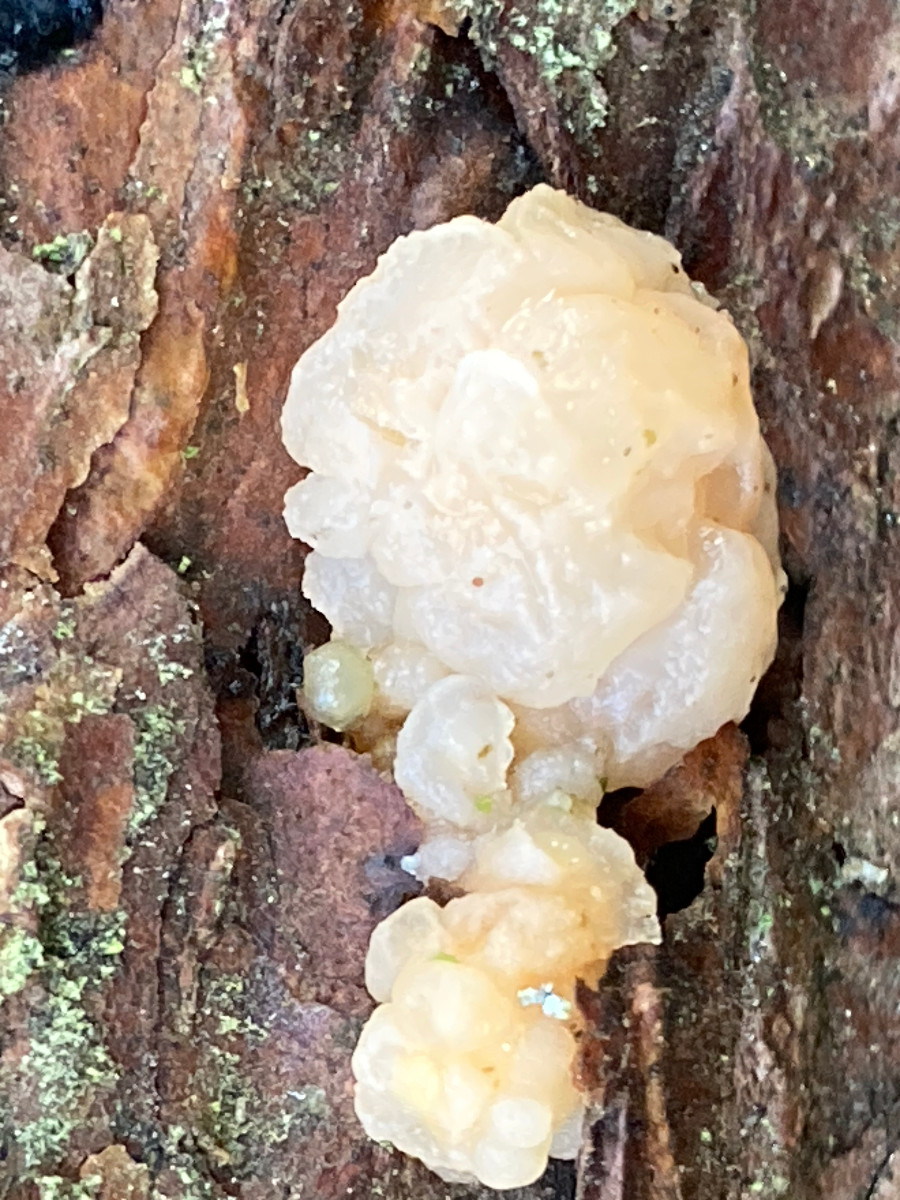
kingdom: Fungi
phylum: Basidiomycota
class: Tremellomycetes
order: Tremellales
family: Naemateliaceae
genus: Naematelia
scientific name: Naematelia encephala
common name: fyrre-bævresvamp
